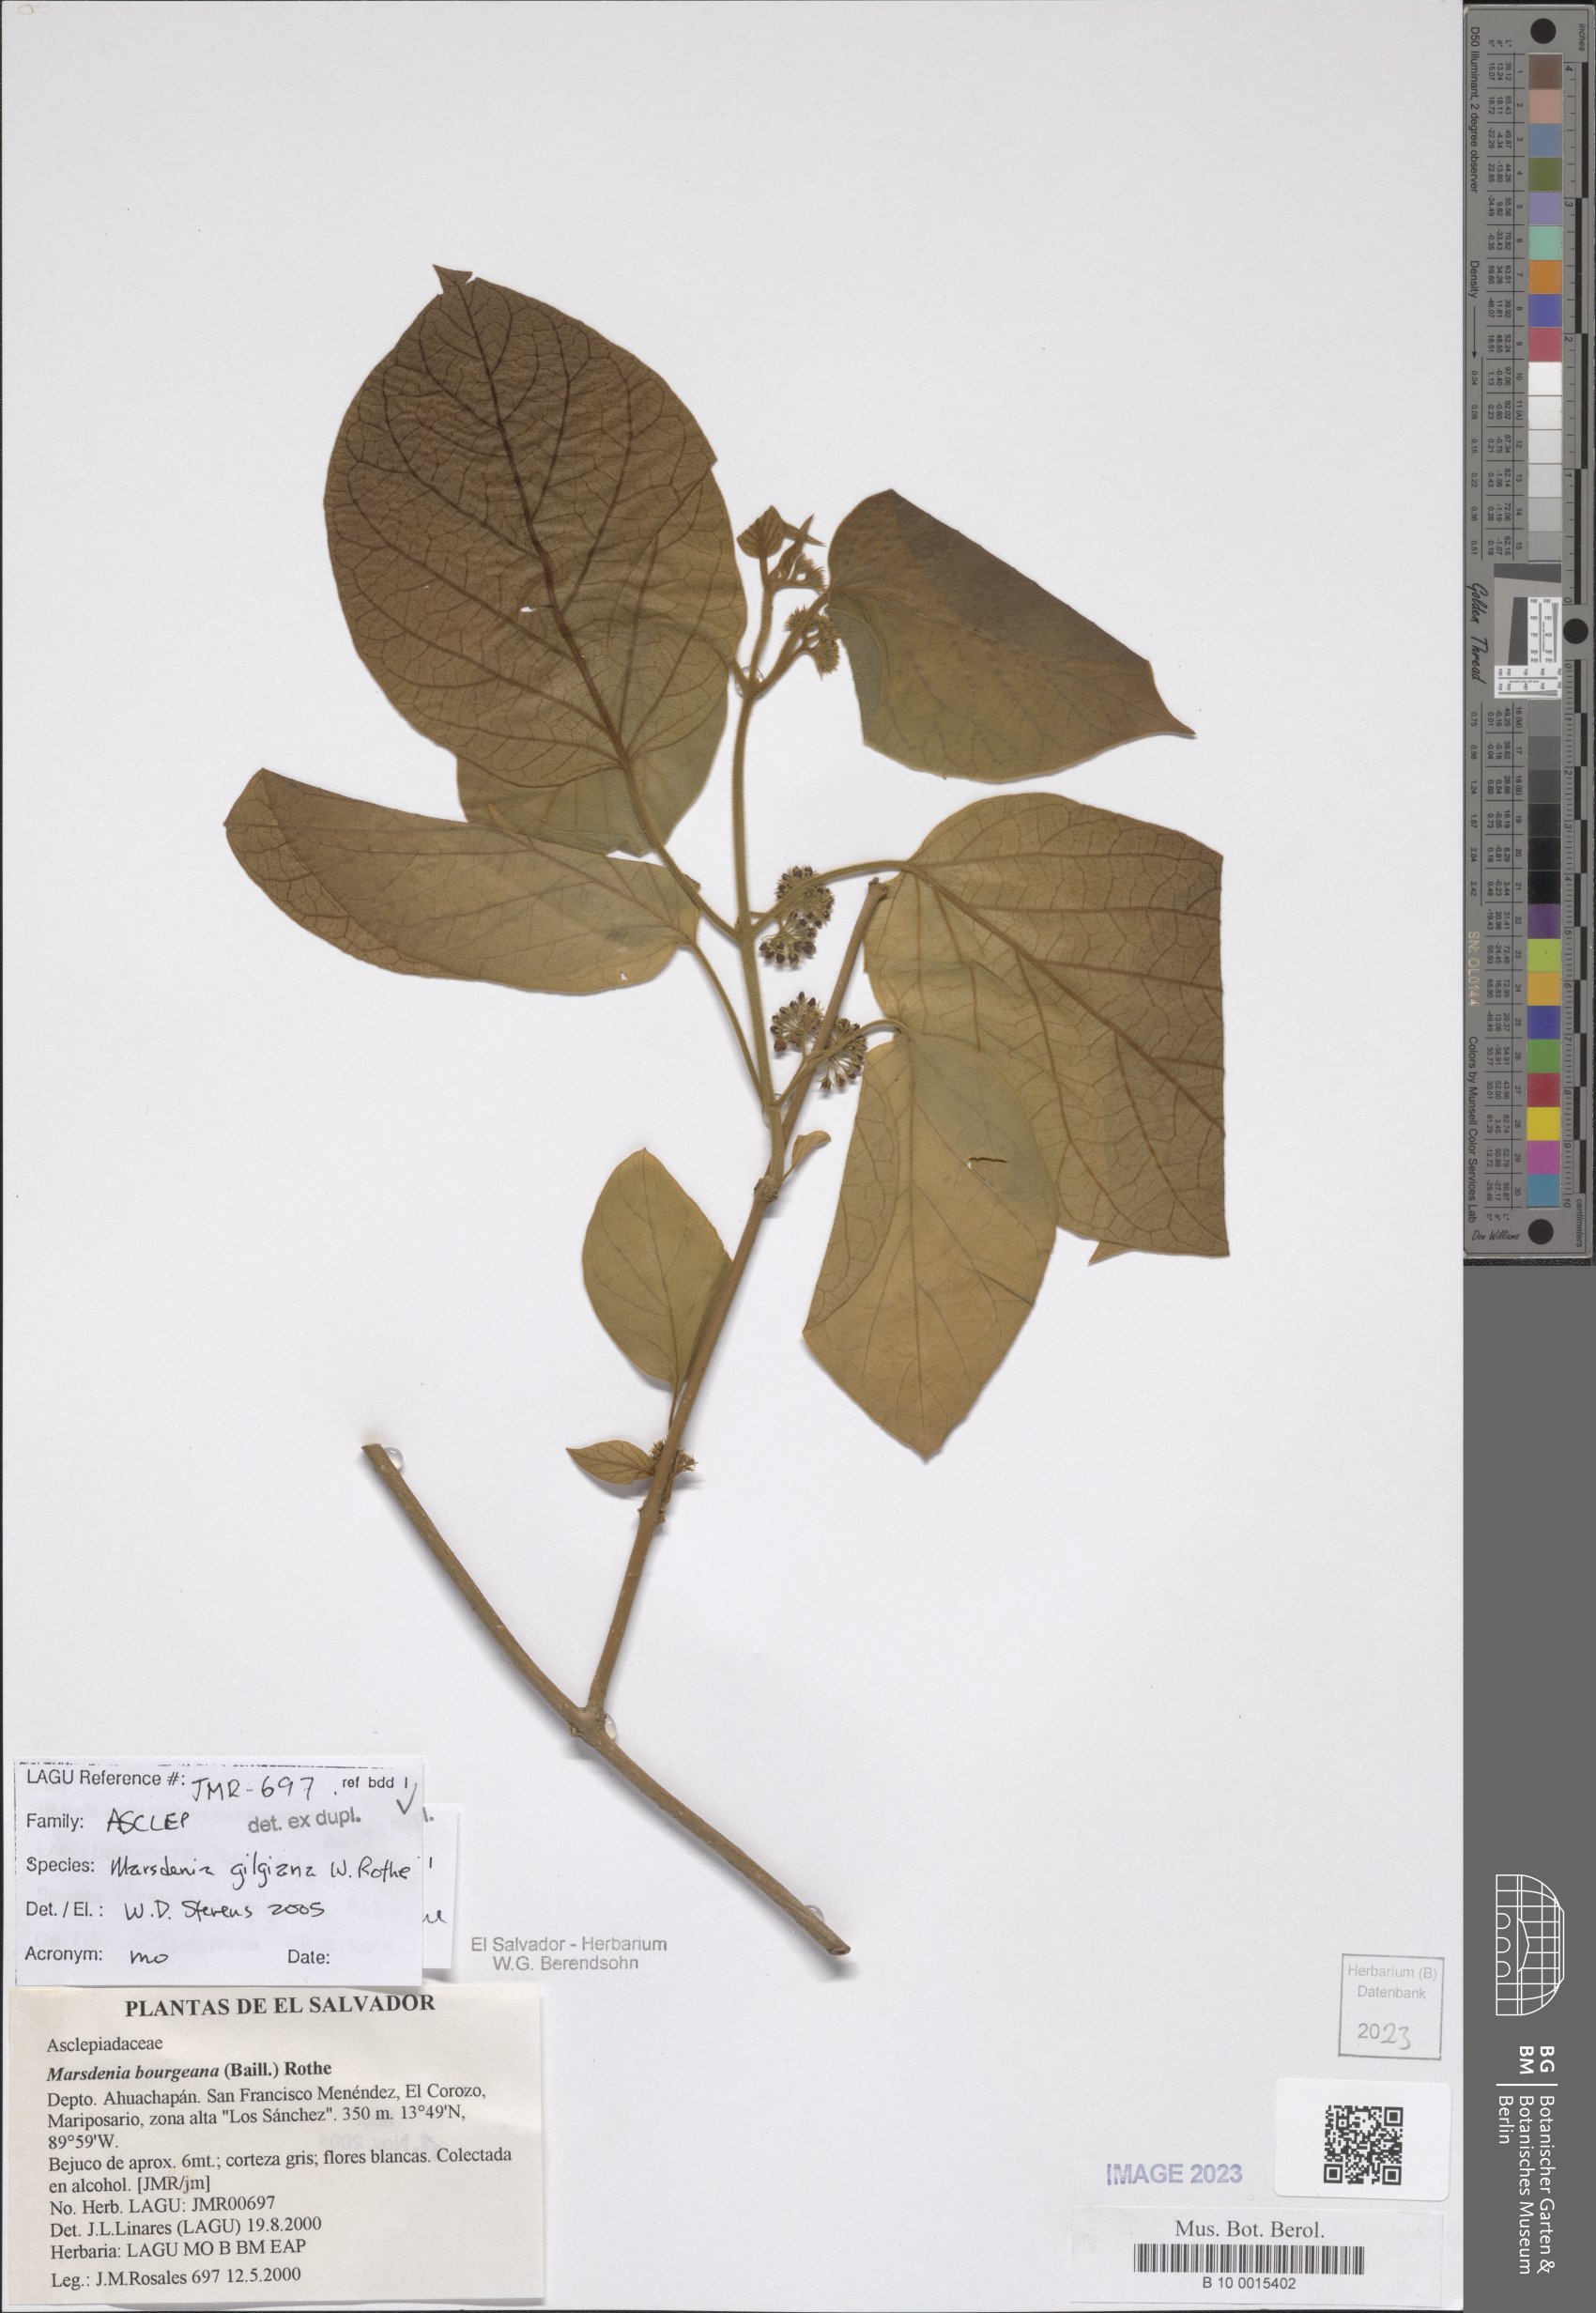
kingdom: Plantae
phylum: Tracheophyta
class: Magnoliopsida
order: Gentianales
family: Apocynaceae
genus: Ruehssia
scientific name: Ruehssia gilgiana
